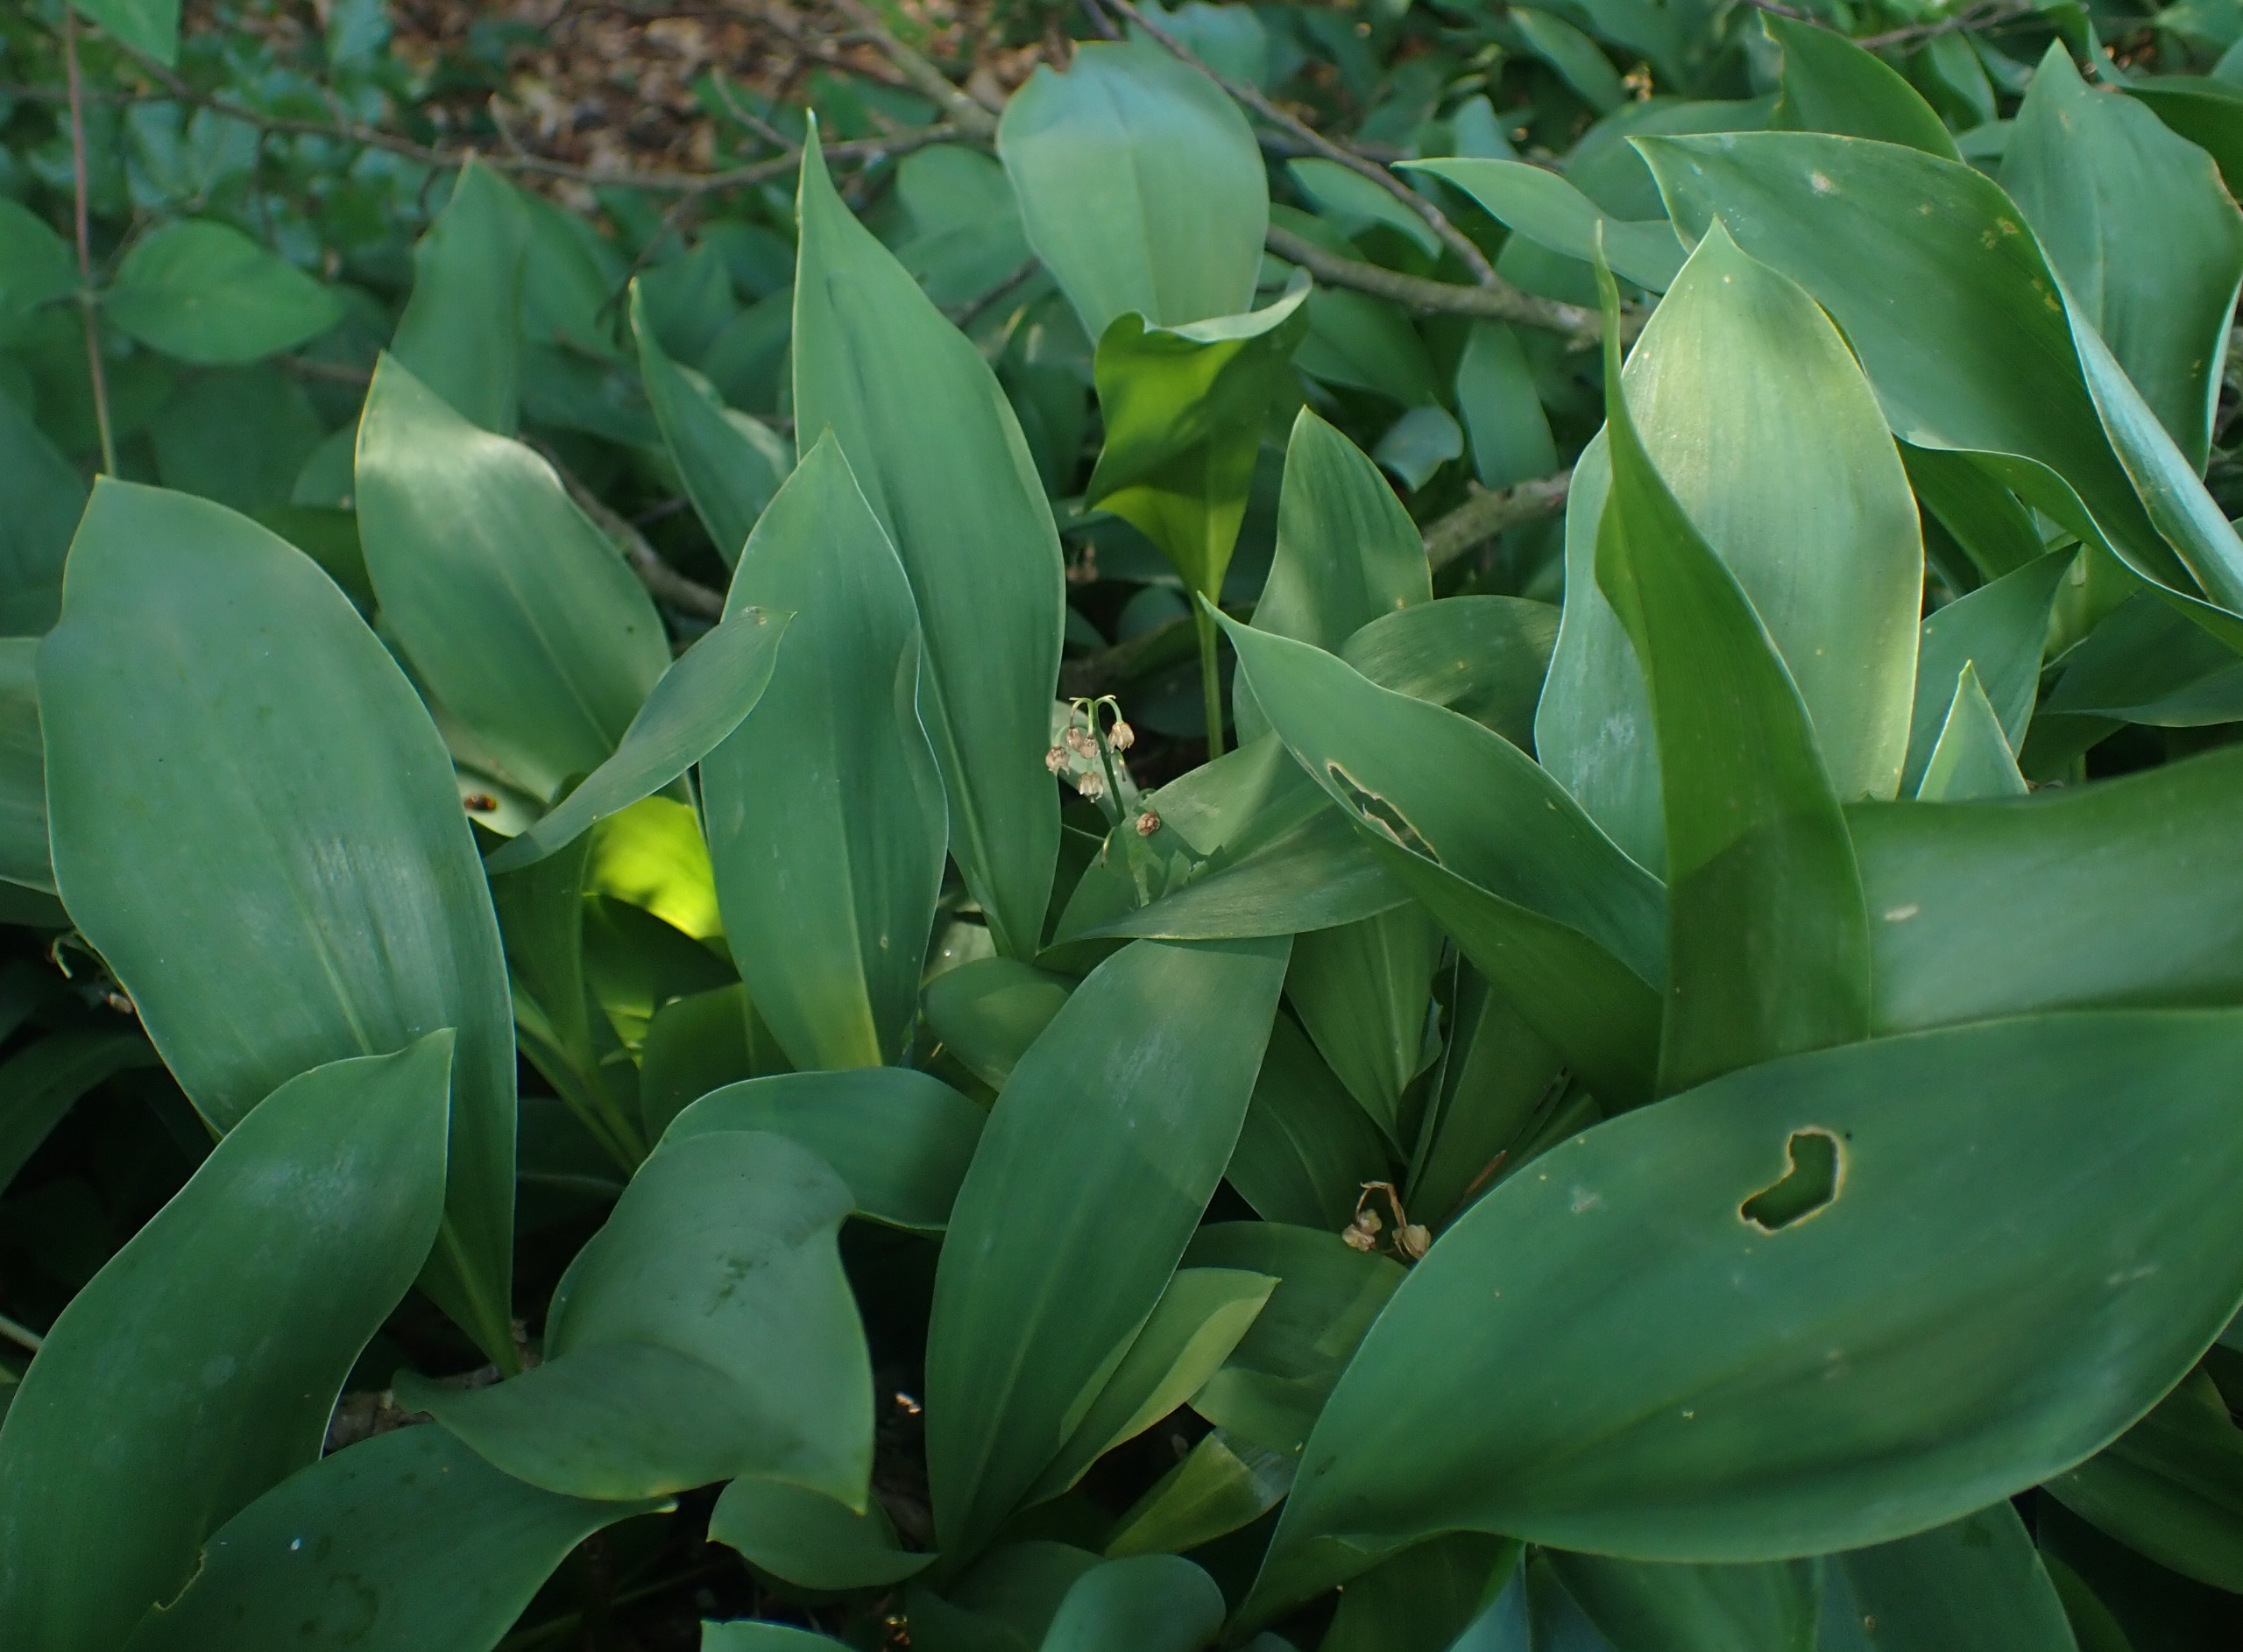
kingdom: Plantae
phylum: Tracheophyta
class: Liliopsida
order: Asparagales
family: Asparagaceae
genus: Convallaria
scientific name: Convallaria majalis
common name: Liljekonval
